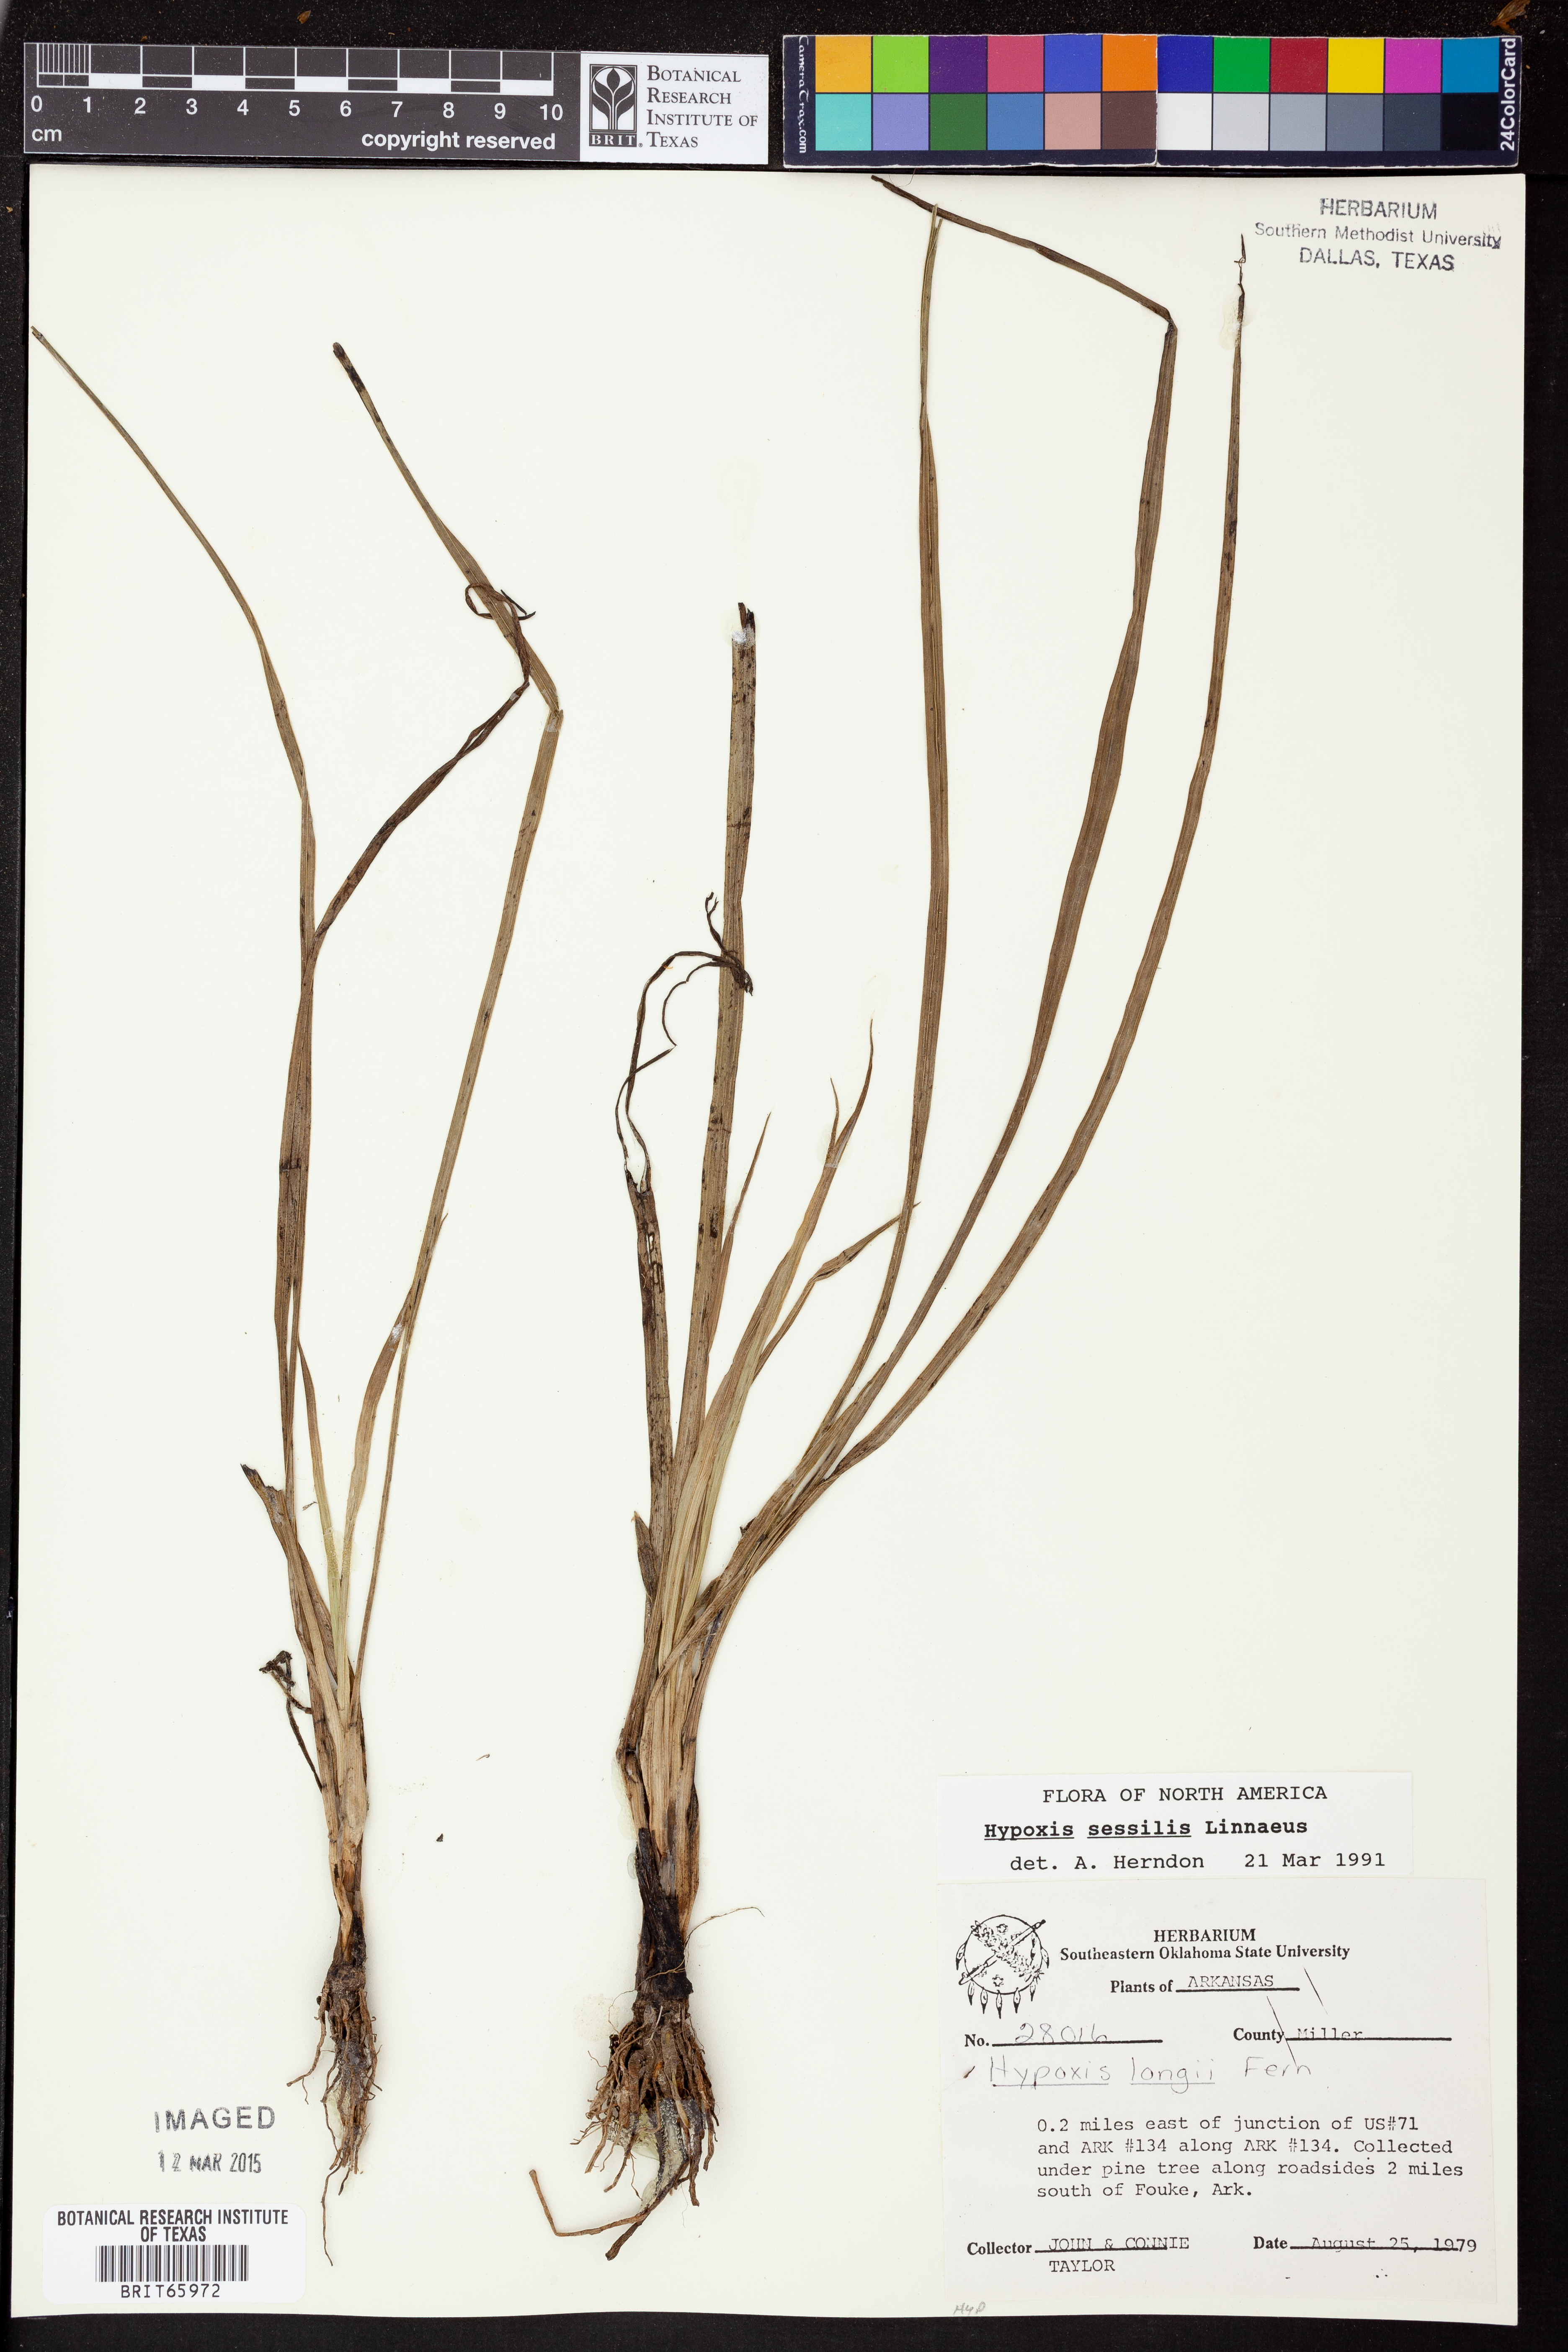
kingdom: Plantae
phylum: Tracheophyta
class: Liliopsida
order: Asparagales
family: Hypoxidaceae
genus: Hypoxis
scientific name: Hypoxis sessilis
